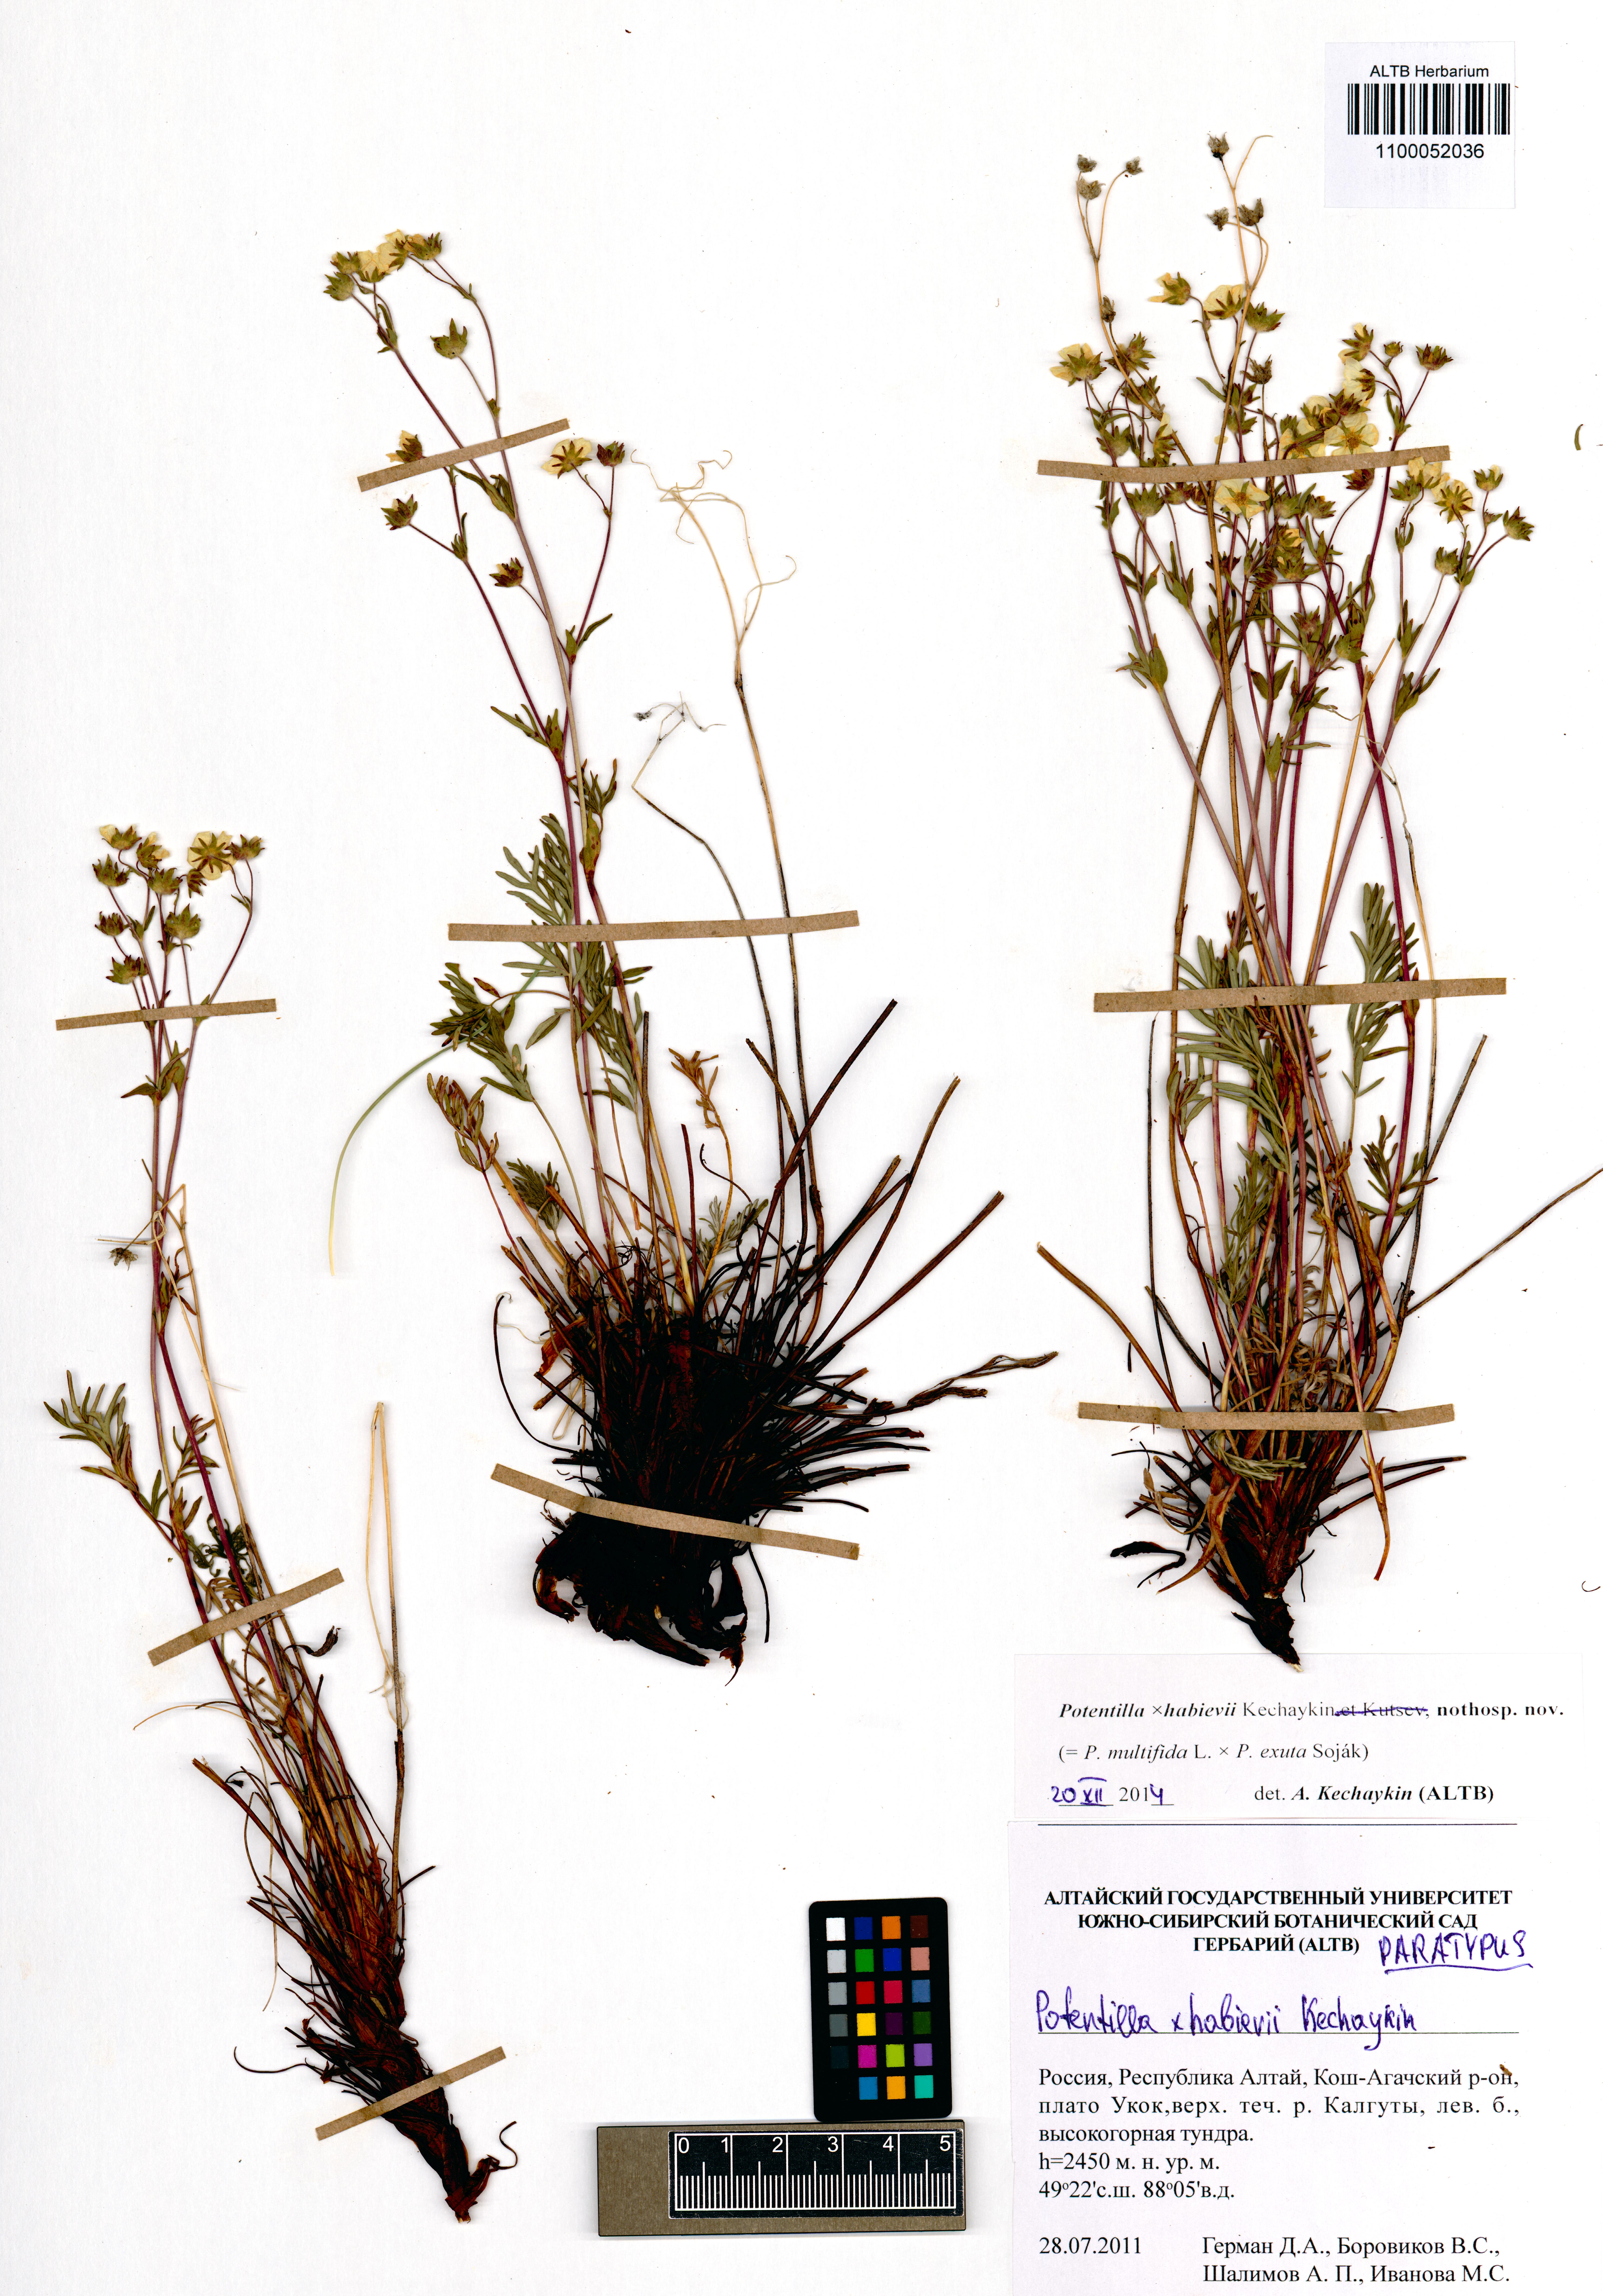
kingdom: Plantae
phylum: Tracheophyta
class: Magnoliopsida
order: Rosales
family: Rosaceae
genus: Potentilla
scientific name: Potentilla habievii
